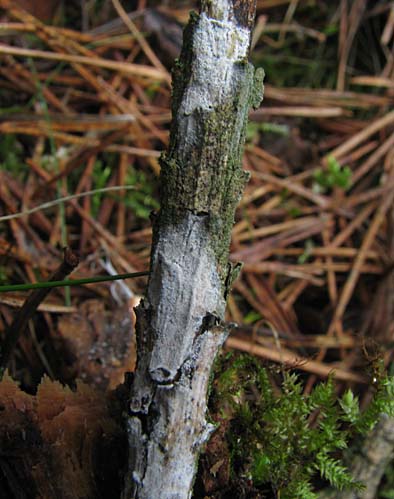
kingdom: Fungi
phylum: Basidiomycota
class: Agaricomycetes
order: Atheliales
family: Atheliaceae
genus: Melzericium
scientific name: Melzericium udicola
